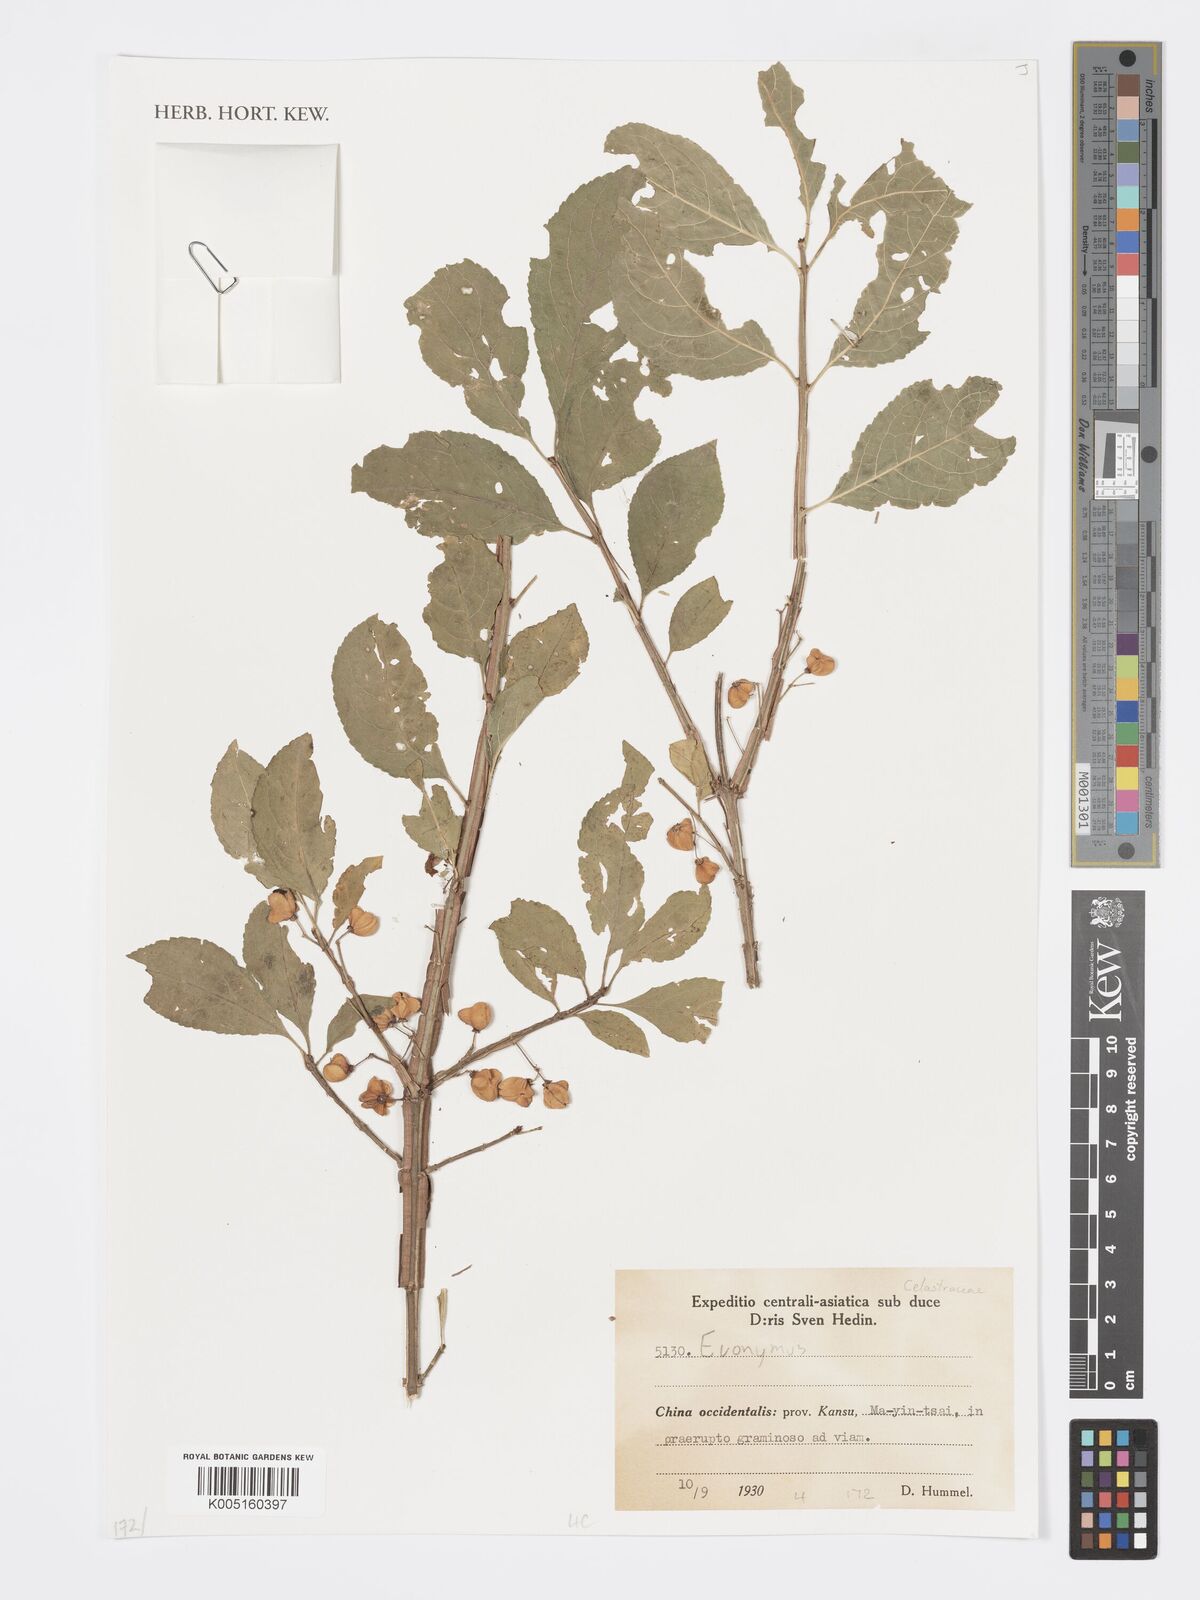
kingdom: Plantae
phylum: Tracheophyta
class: Magnoliopsida
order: Celastrales
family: Celastraceae
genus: Euonymus
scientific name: Euonymus
